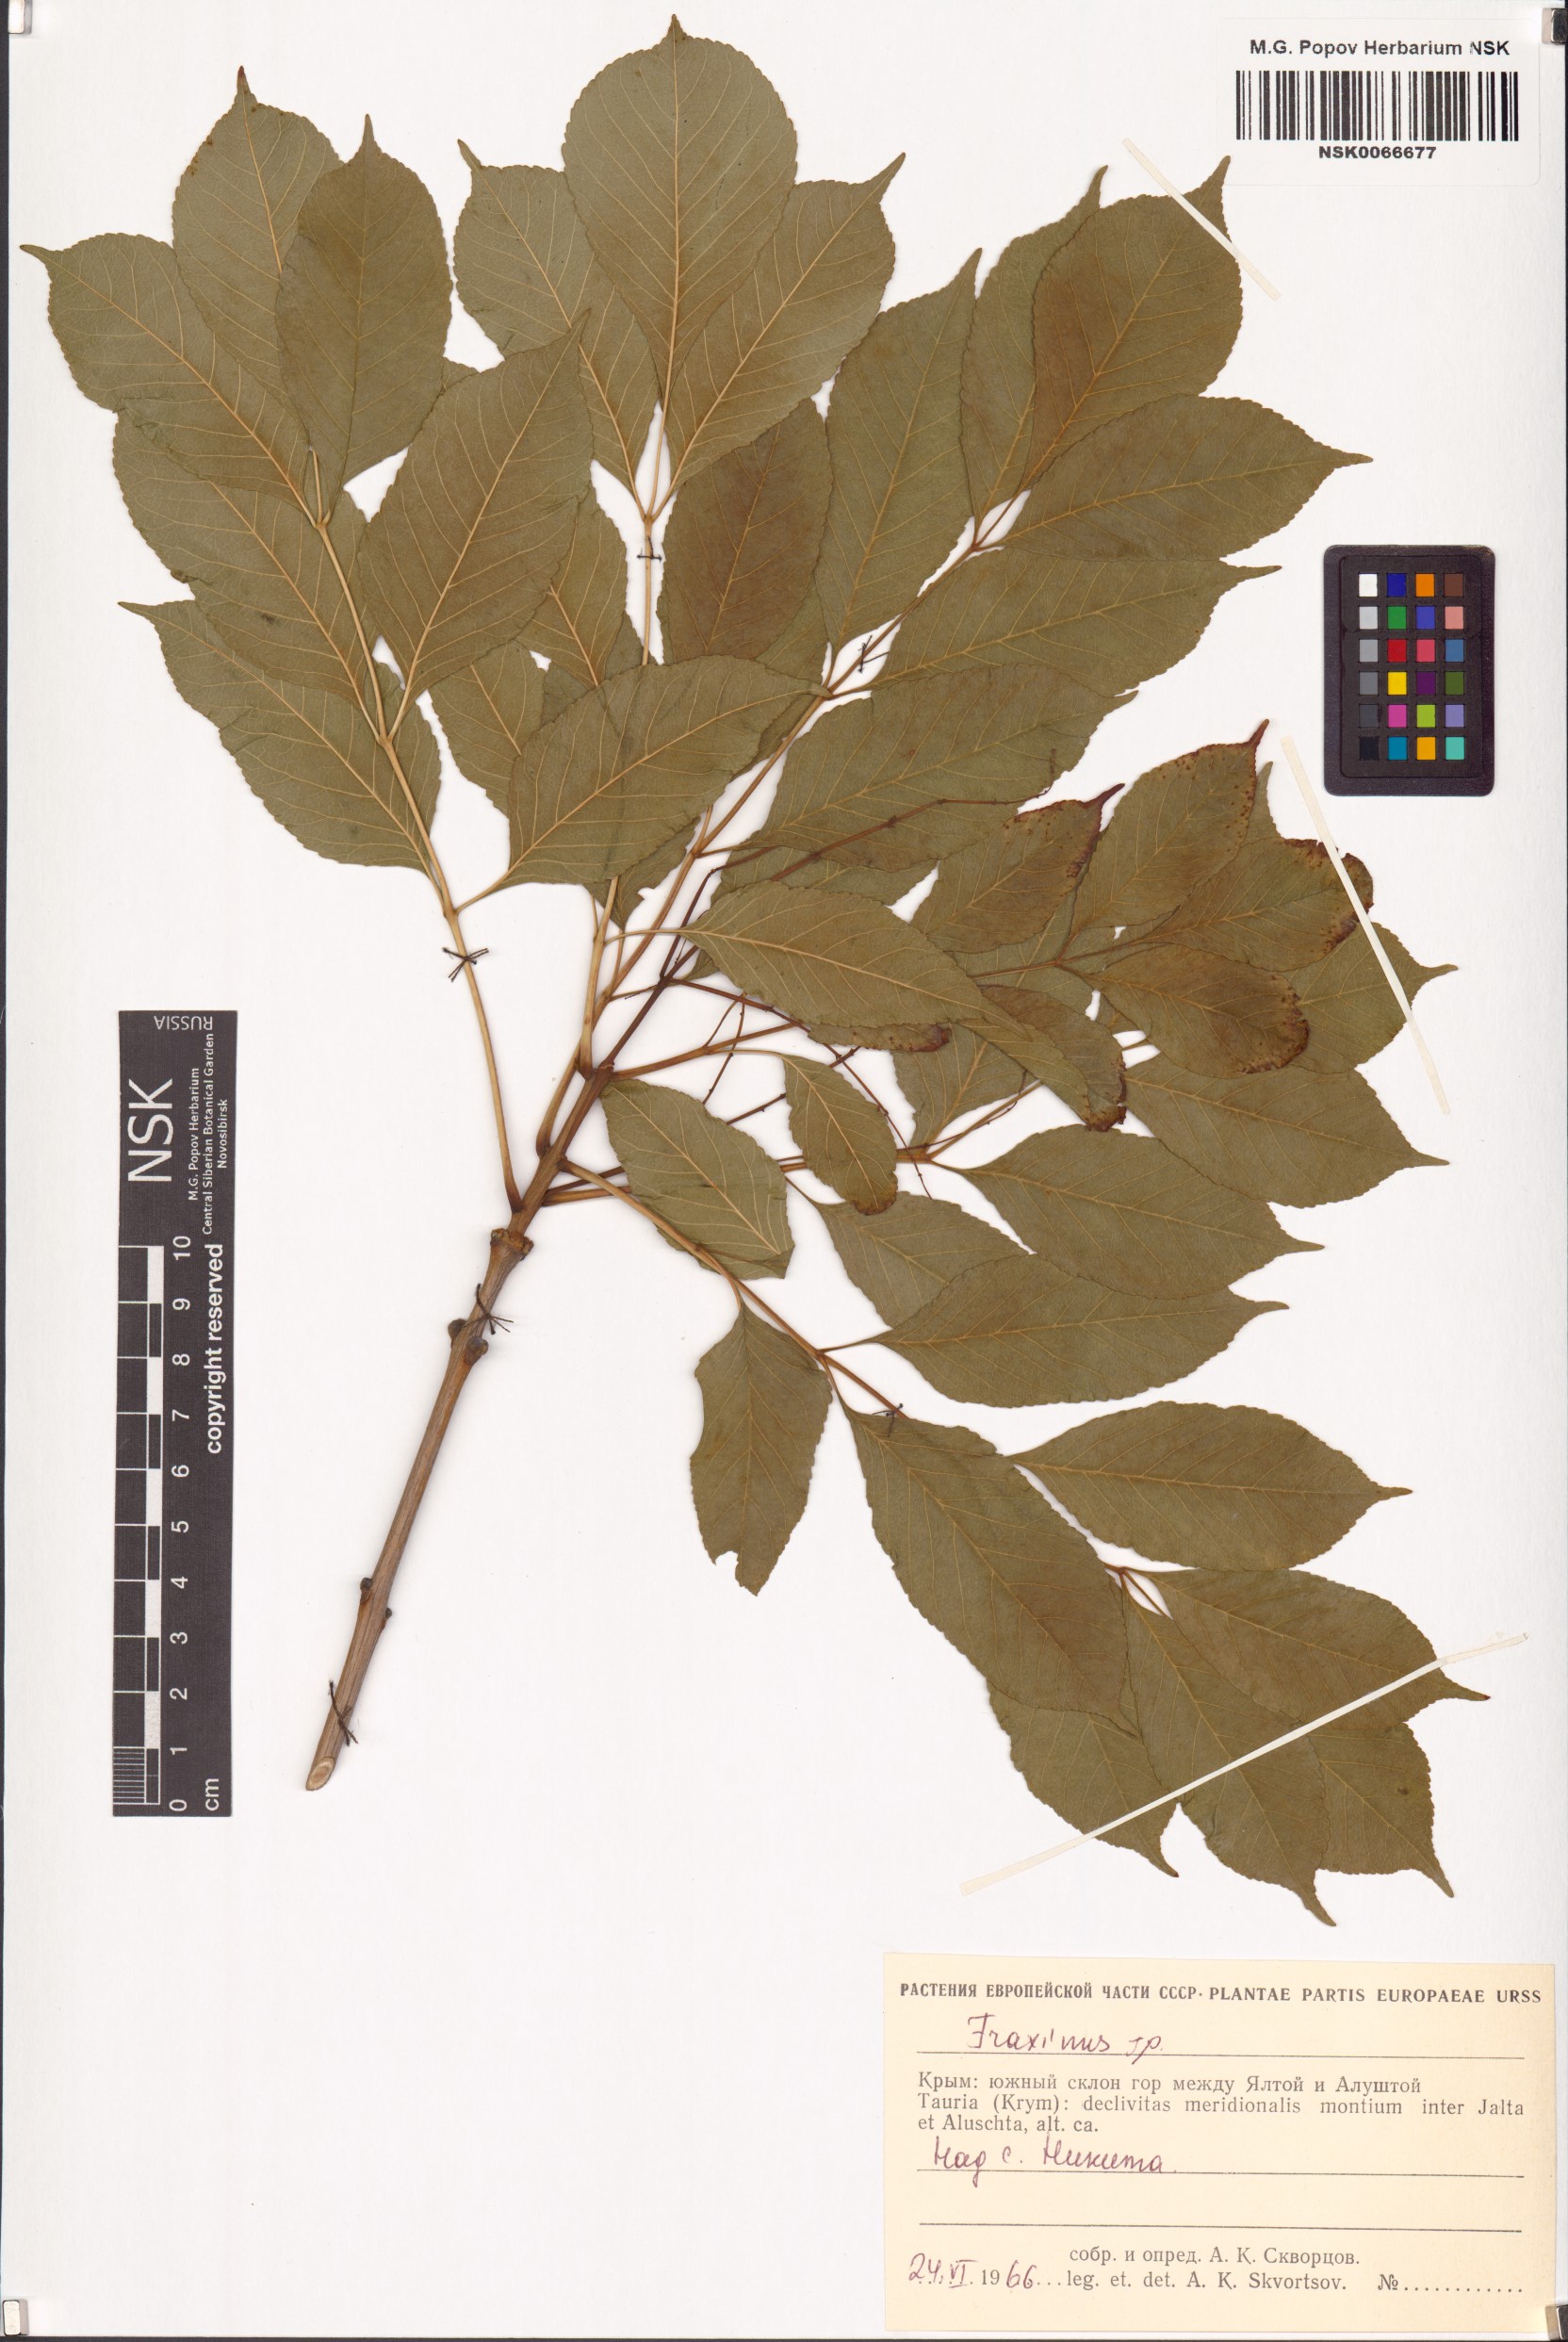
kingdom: Plantae
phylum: Tracheophyta
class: Magnoliopsida
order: Lamiales
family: Oleaceae
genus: Fraxinus
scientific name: Fraxinus
